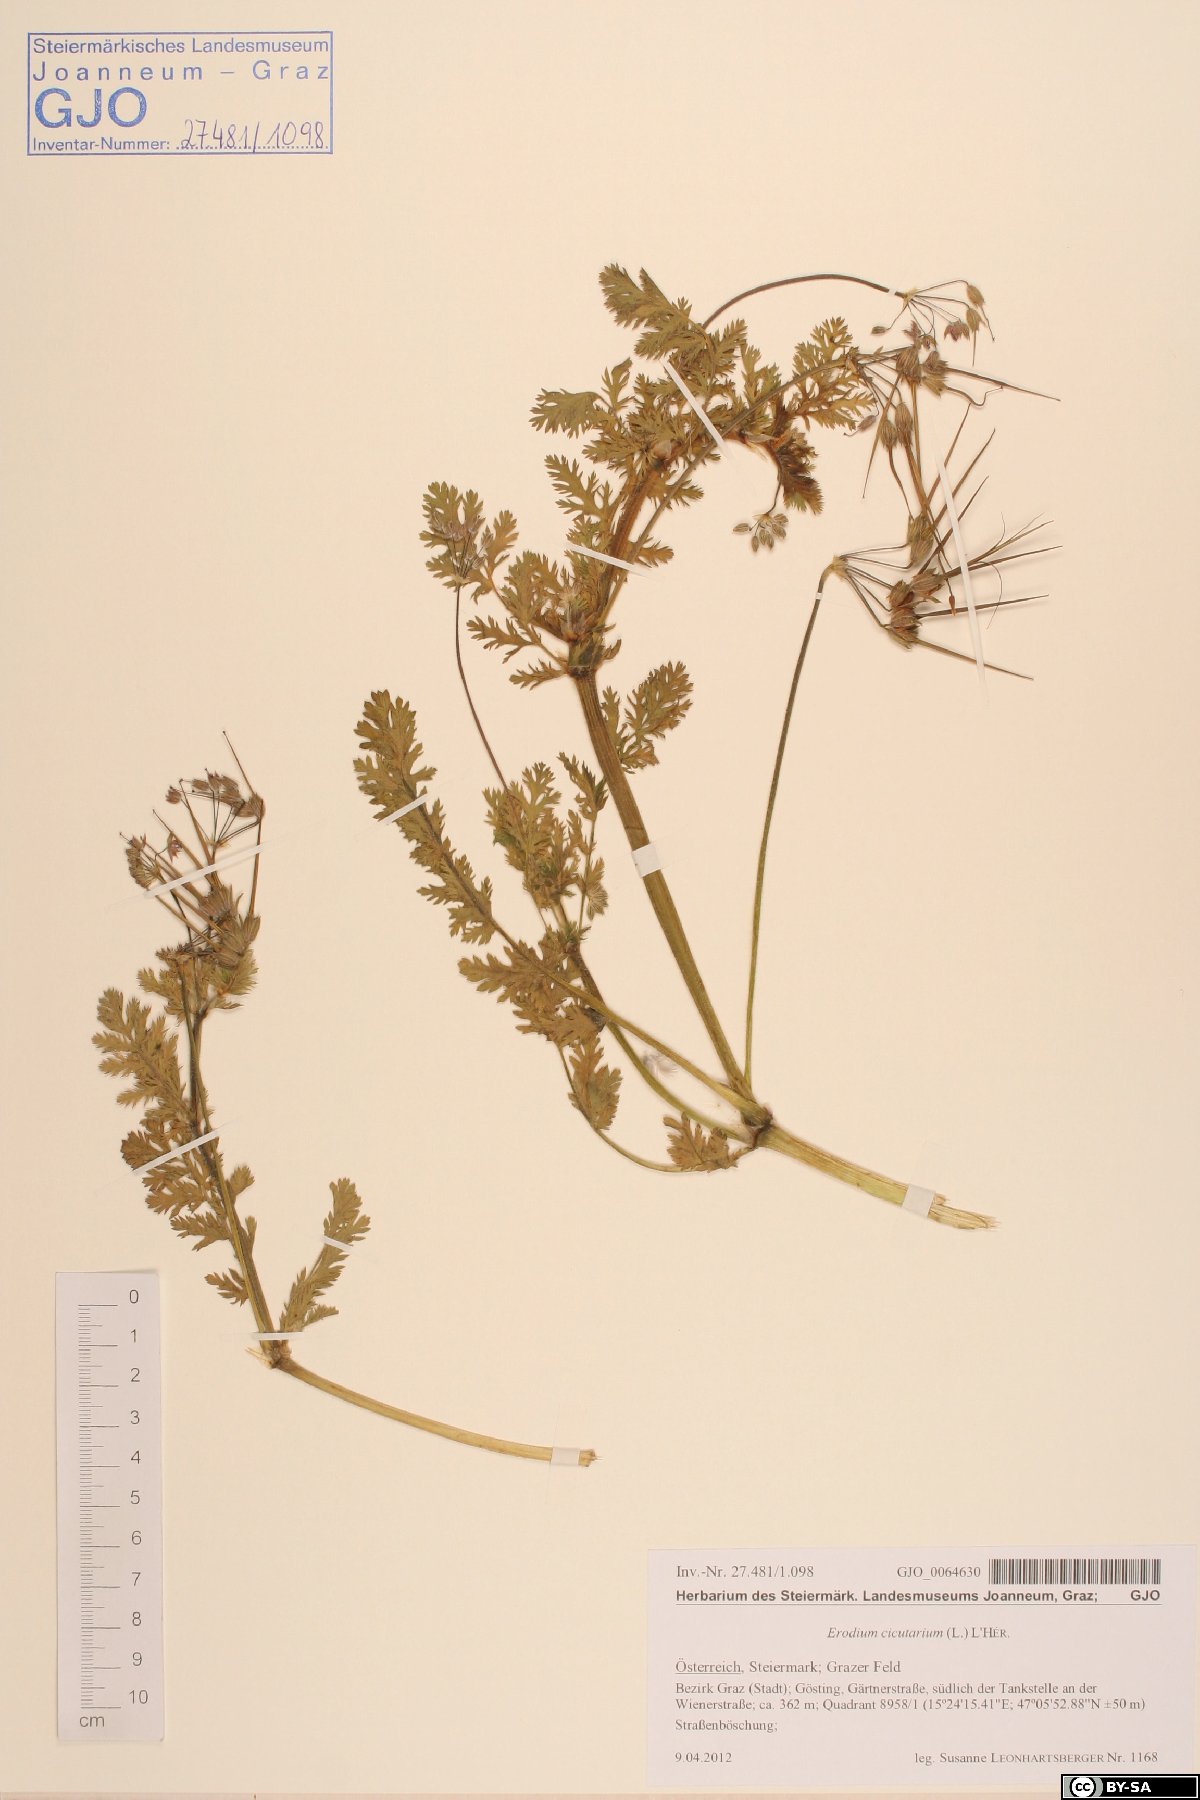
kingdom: Plantae
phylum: Tracheophyta
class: Magnoliopsida
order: Geraniales
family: Geraniaceae
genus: Erodium
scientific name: Erodium cicutarium
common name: Common stork's-bill
